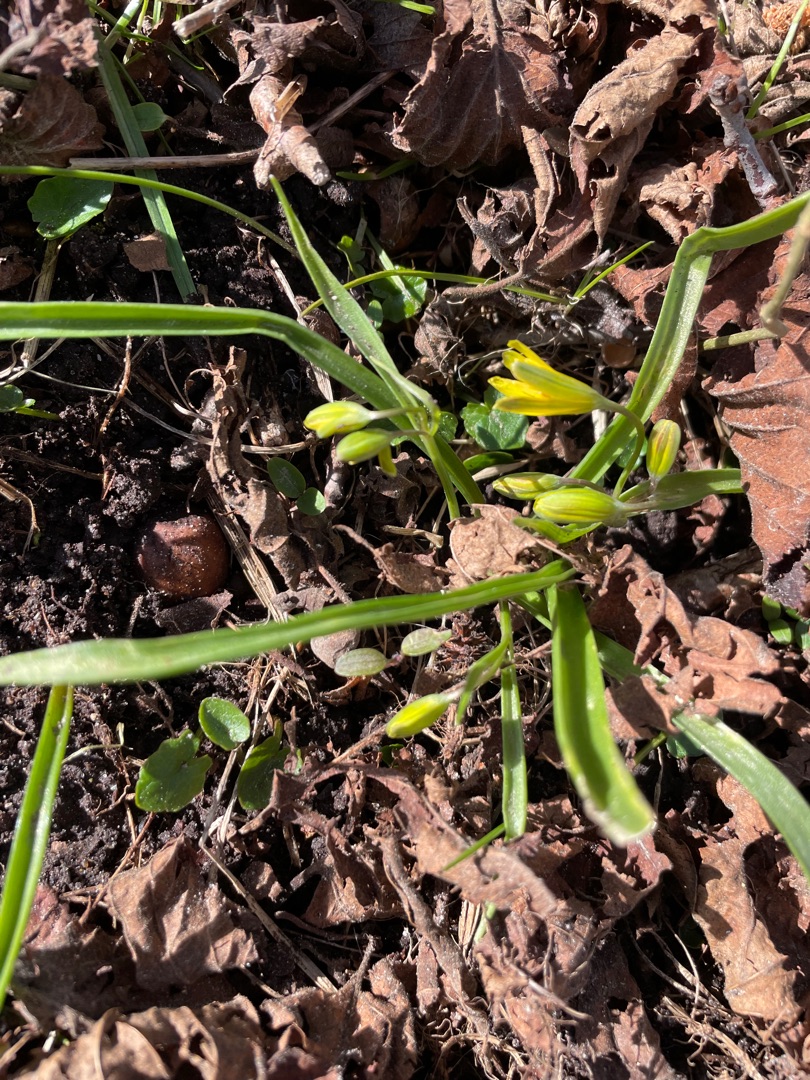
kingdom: Plantae
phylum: Tracheophyta
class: Liliopsida
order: Liliales
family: Liliaceae
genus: Gagea
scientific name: Gagea lutea
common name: Almindelig guldstjerne
